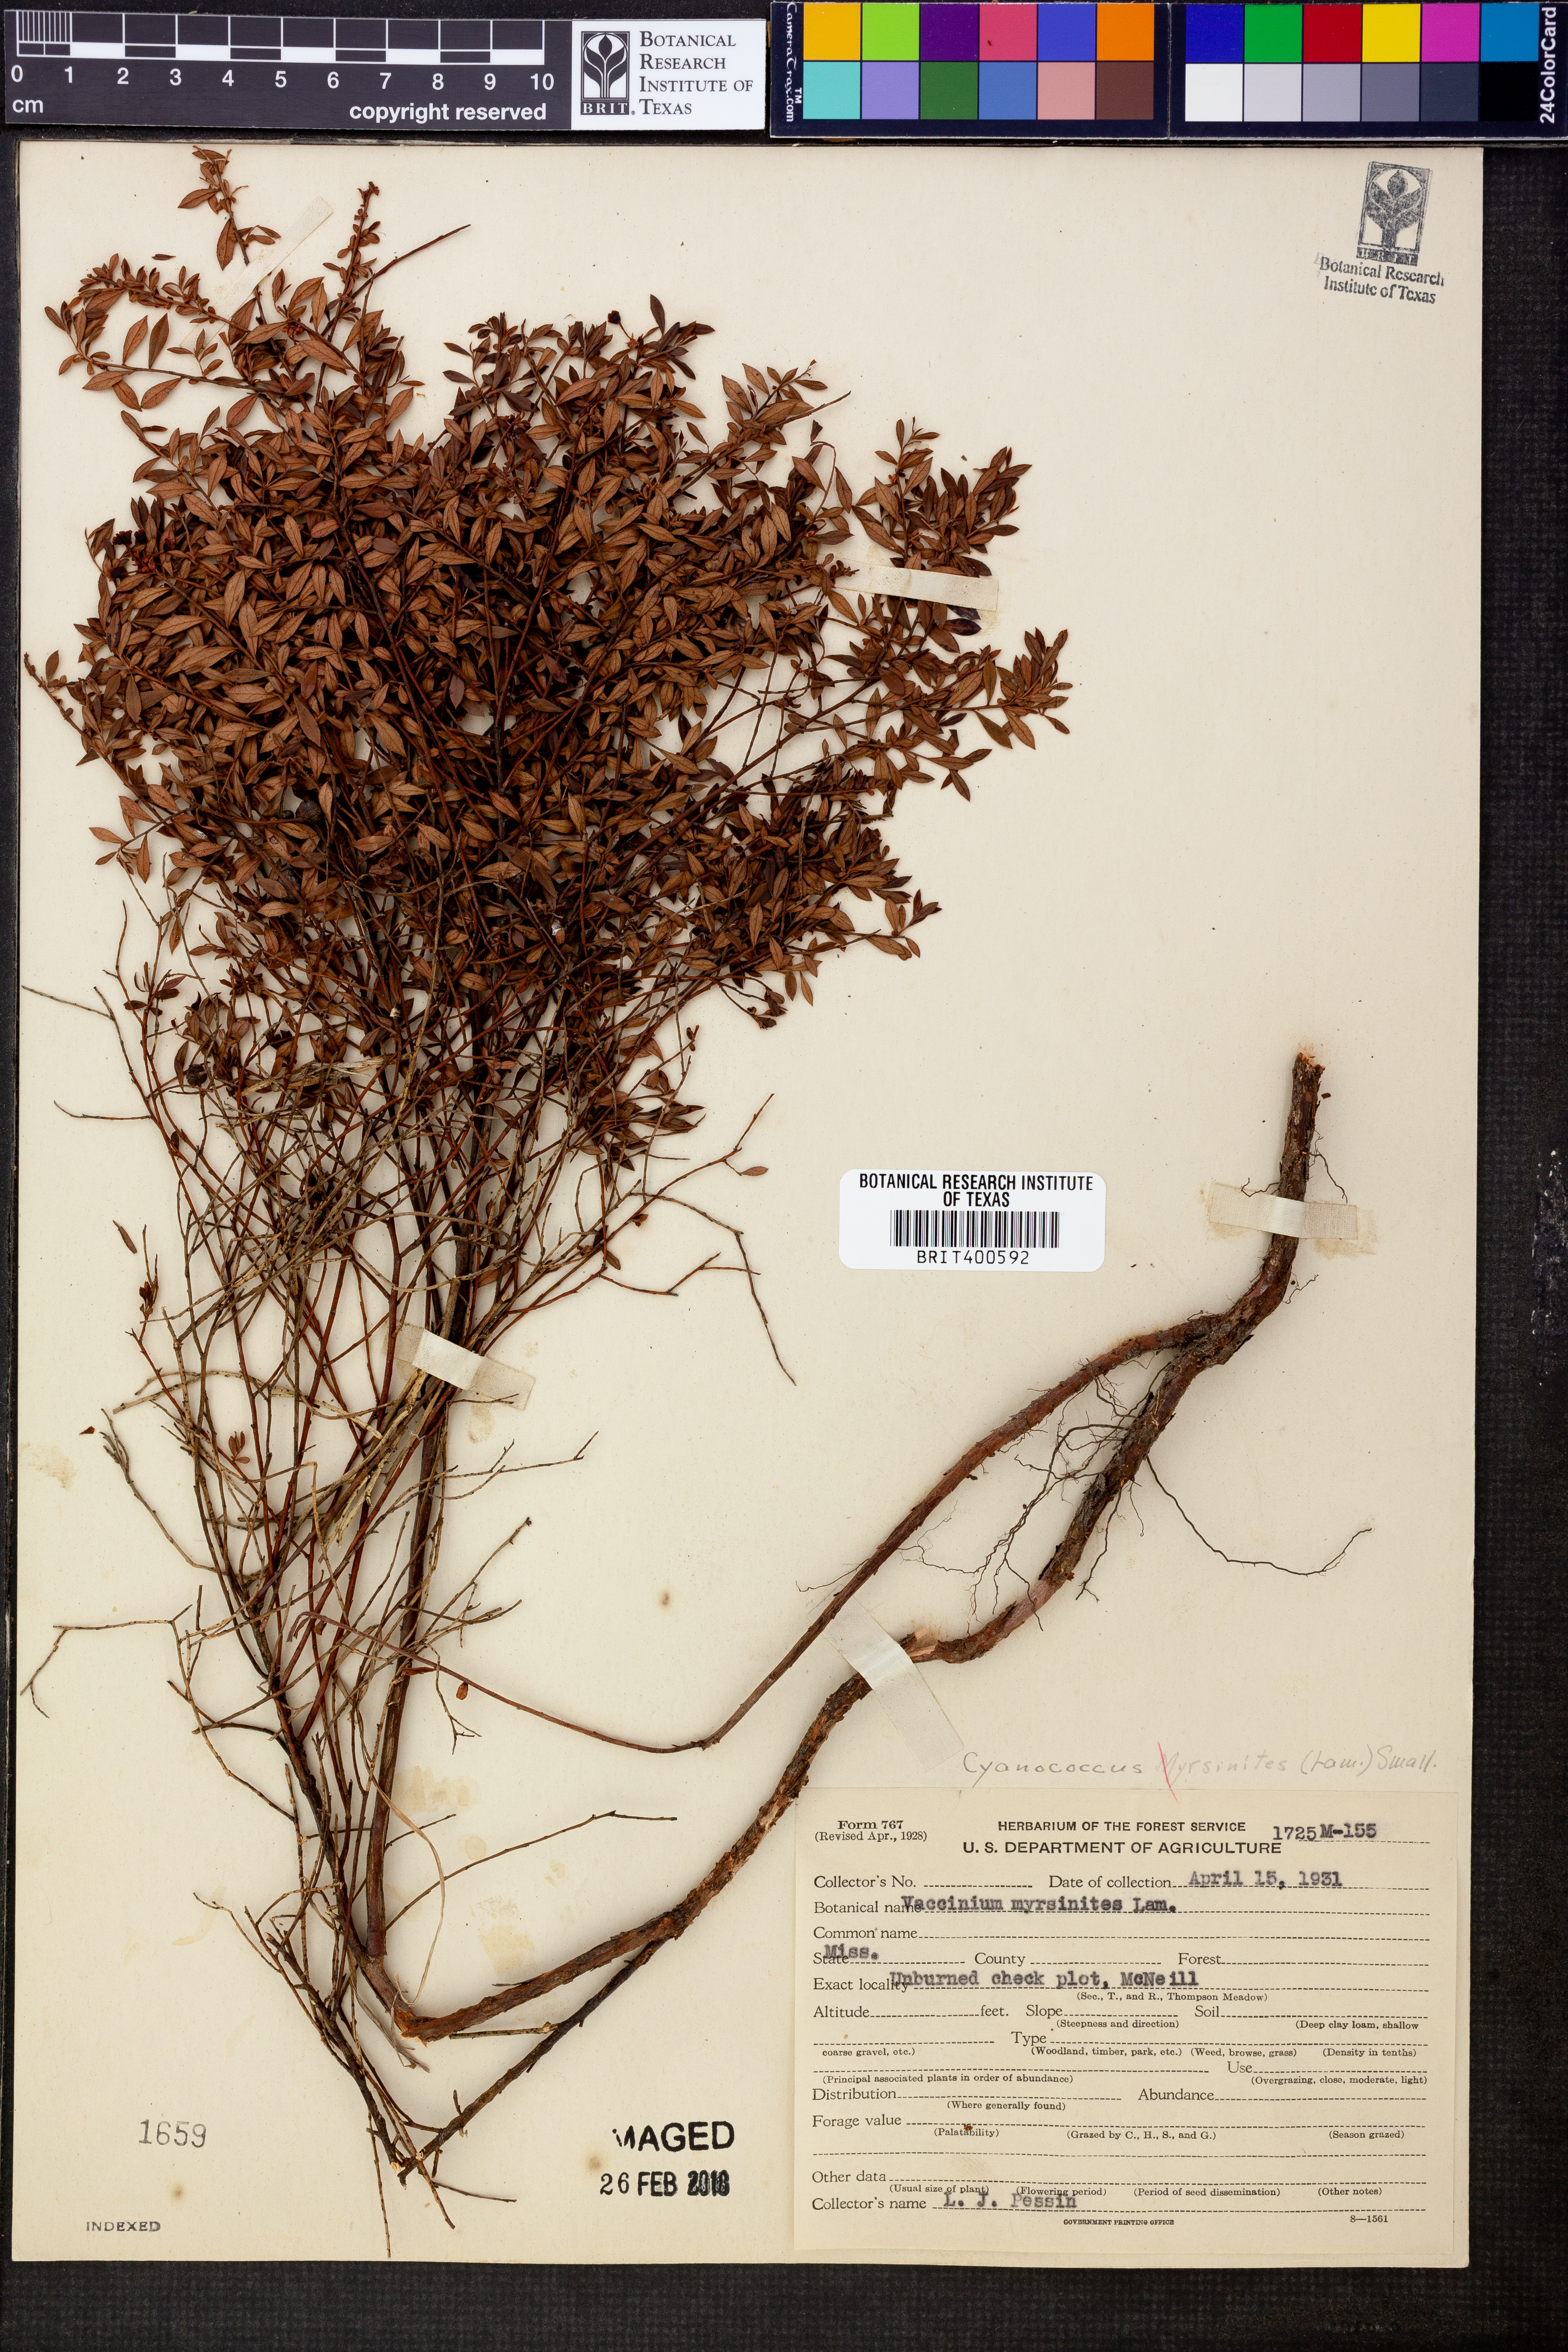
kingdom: Plantae
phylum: Tracheophyta
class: Magnoliopsida
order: Ericales
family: Ericaceae
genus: Vaccinium
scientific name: Vaccinium myrsinites
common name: Evergreen blueberry
